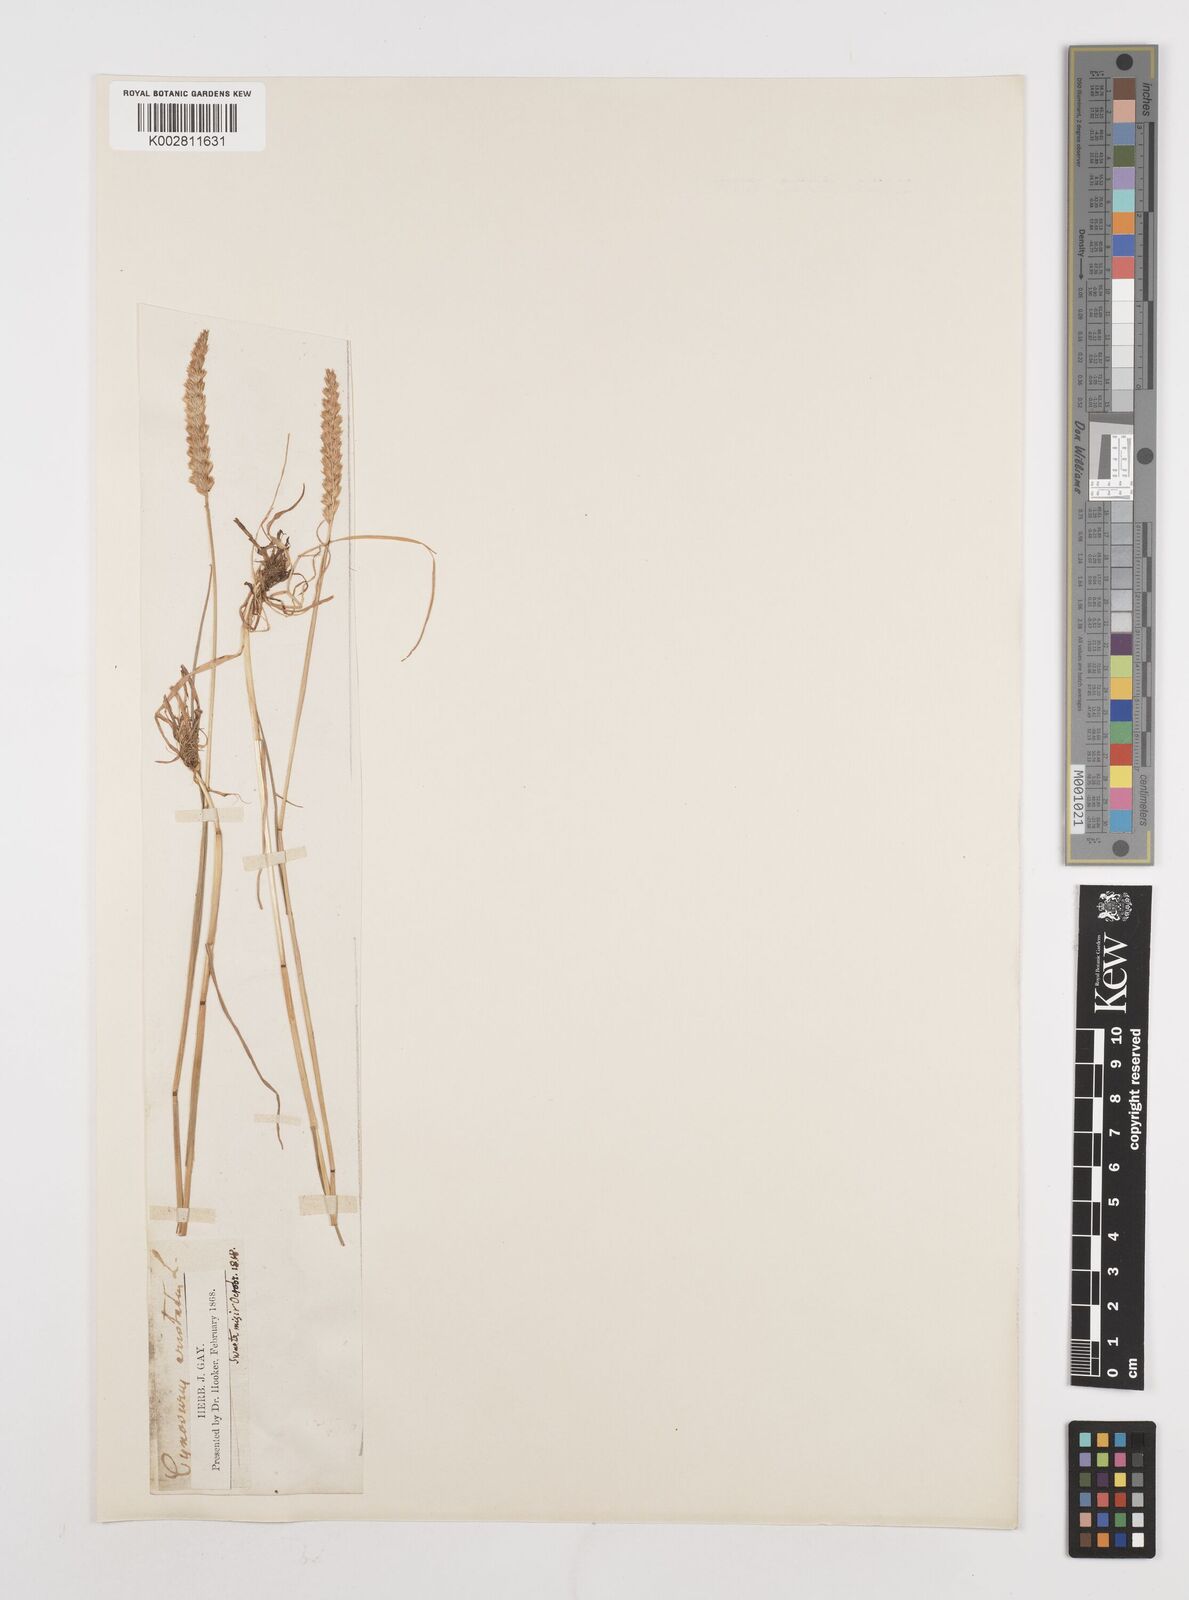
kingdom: Plantae
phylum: Tracheophyta
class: Liliopsida
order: Poales
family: Poaceae
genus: Cynosurus
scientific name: Cynosurus cristatus
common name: Crested dog's-tail
